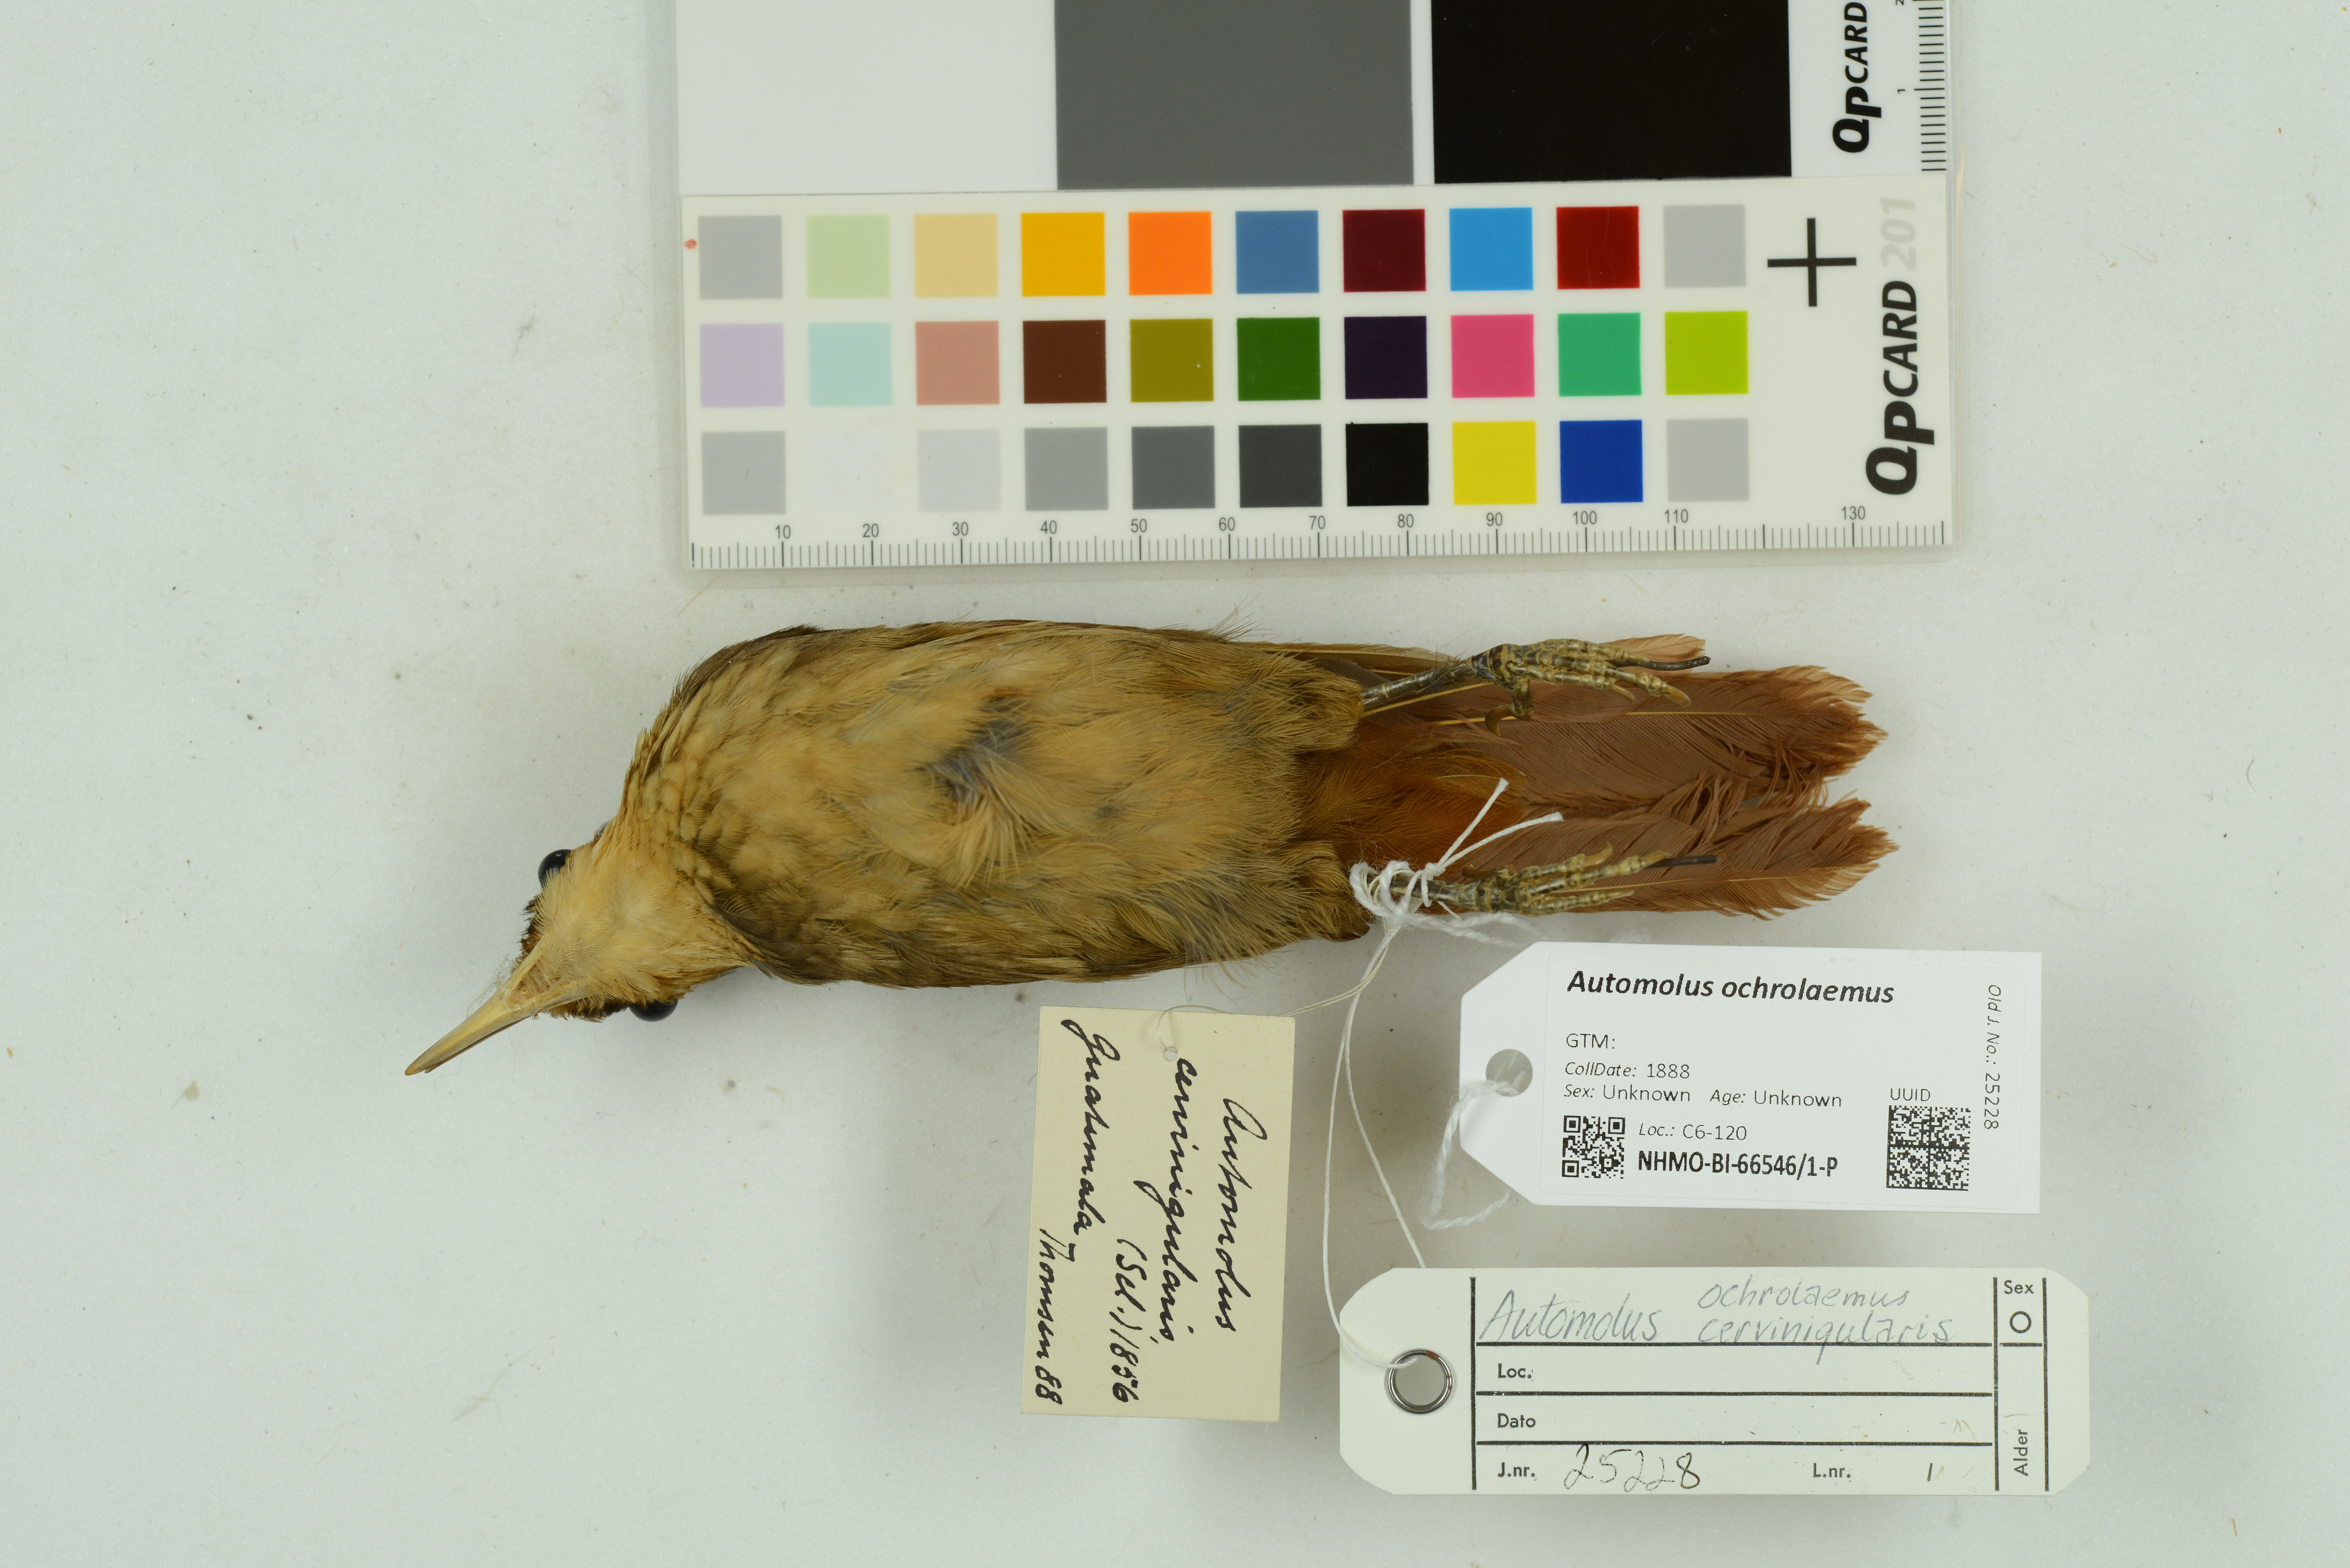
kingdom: Animalia
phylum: Chordata
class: Aves
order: Passeriformes
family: Furnariidae
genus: Automolus
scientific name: Automolus ochrolaemus
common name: Buff-throated foliage-gleaner
